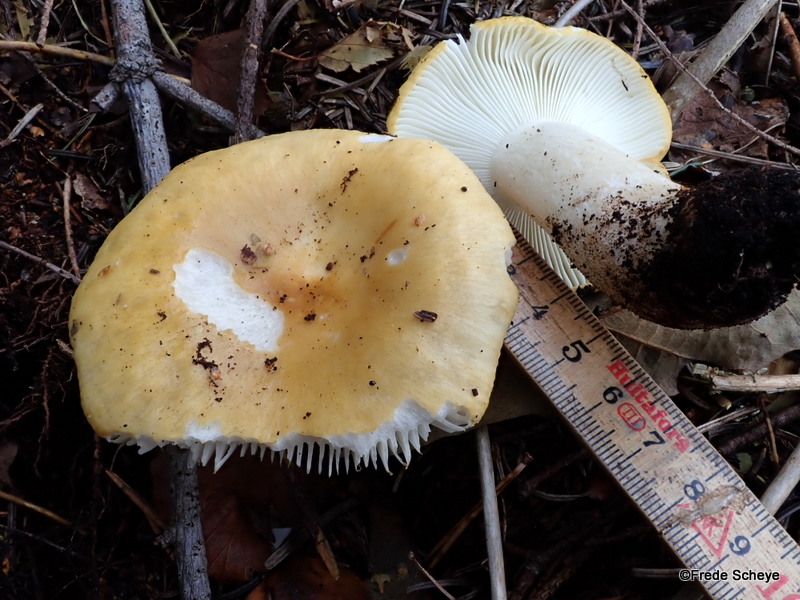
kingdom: Fungi
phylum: Basidiomycota
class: Agaricomycetes
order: Russulales
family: Russulaceae
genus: Russula
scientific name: Russula ochroleuca
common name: okkergul skørhat
